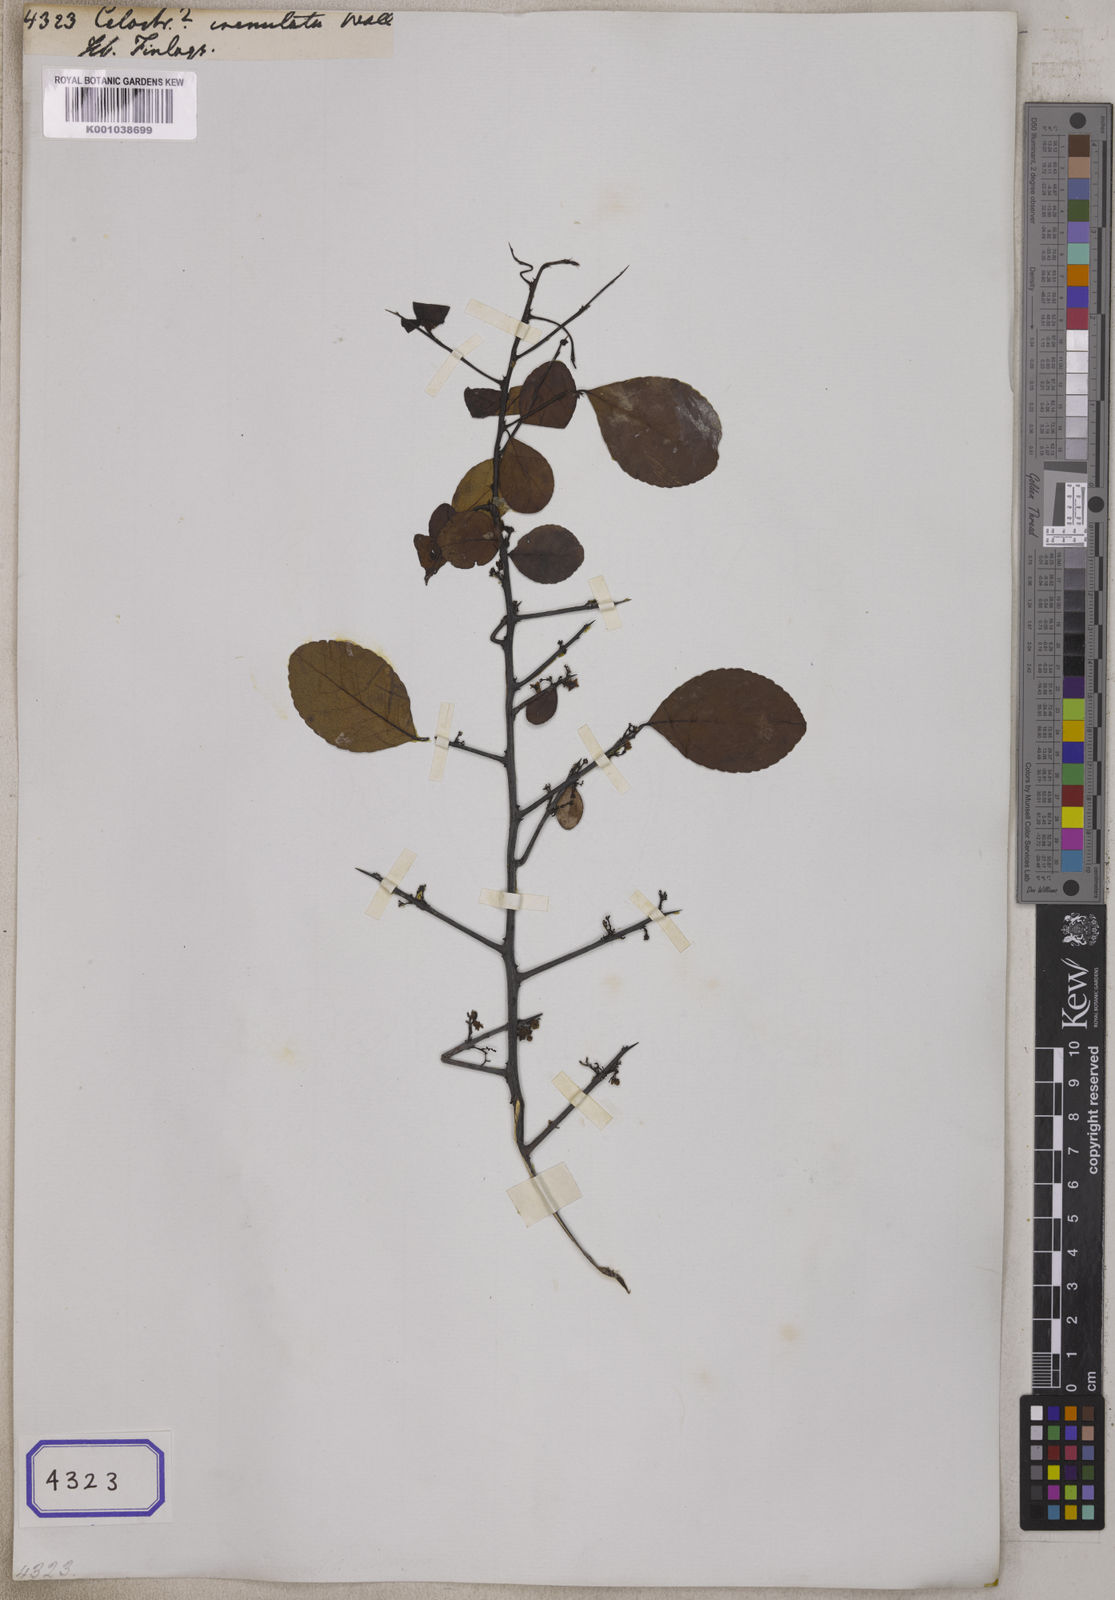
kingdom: Plantae
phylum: Tracheophyta
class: Magnoliopsida
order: Celastrales
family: Celastraceae
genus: Celastrus
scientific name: Celastrus
